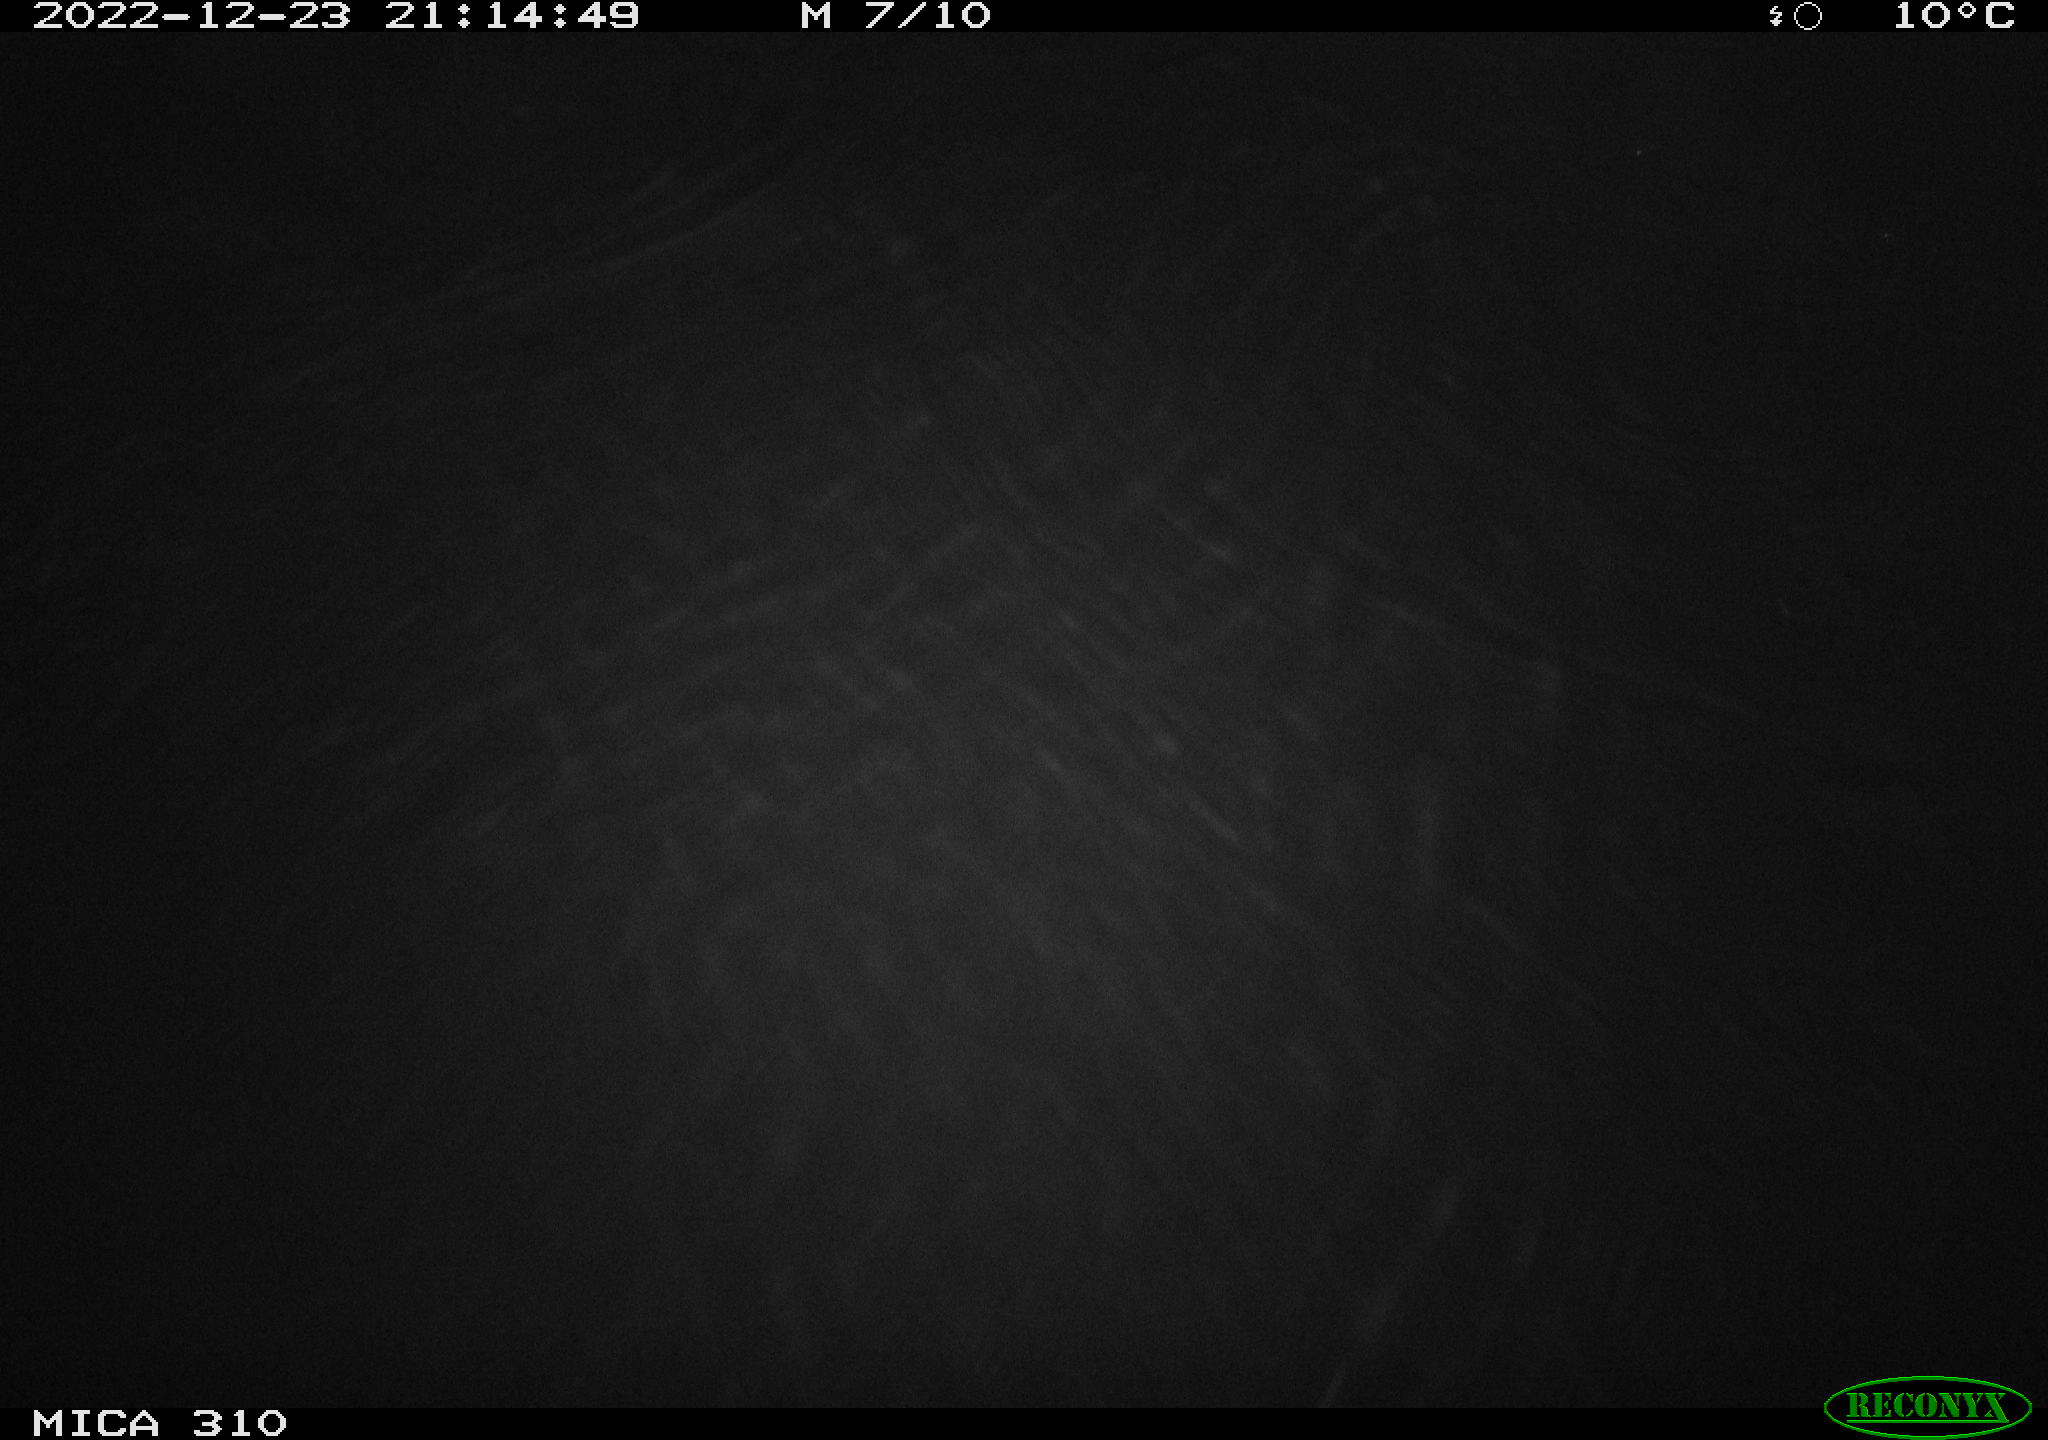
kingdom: Animalia
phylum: Chordata
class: Mammalia
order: Rodentia
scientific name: Rodentia
